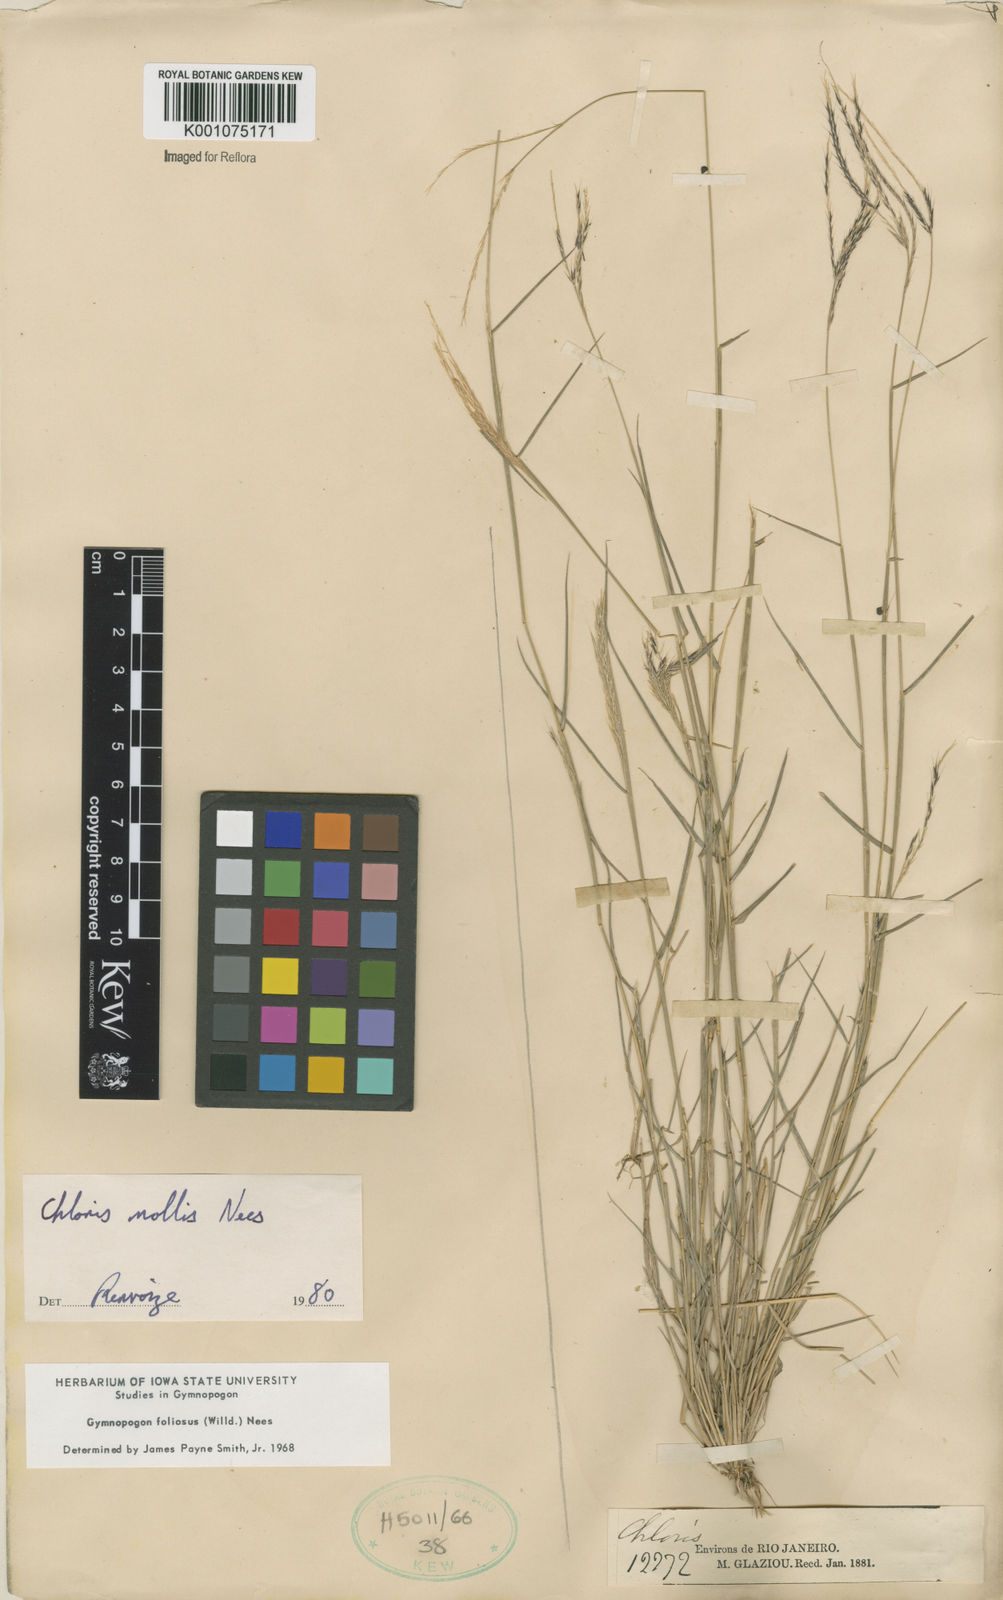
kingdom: Plantae
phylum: Tracheophyta
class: Liliopsida
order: Poales
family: Poaceae
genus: Leptochloa
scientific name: Leptochloa anisopoda
